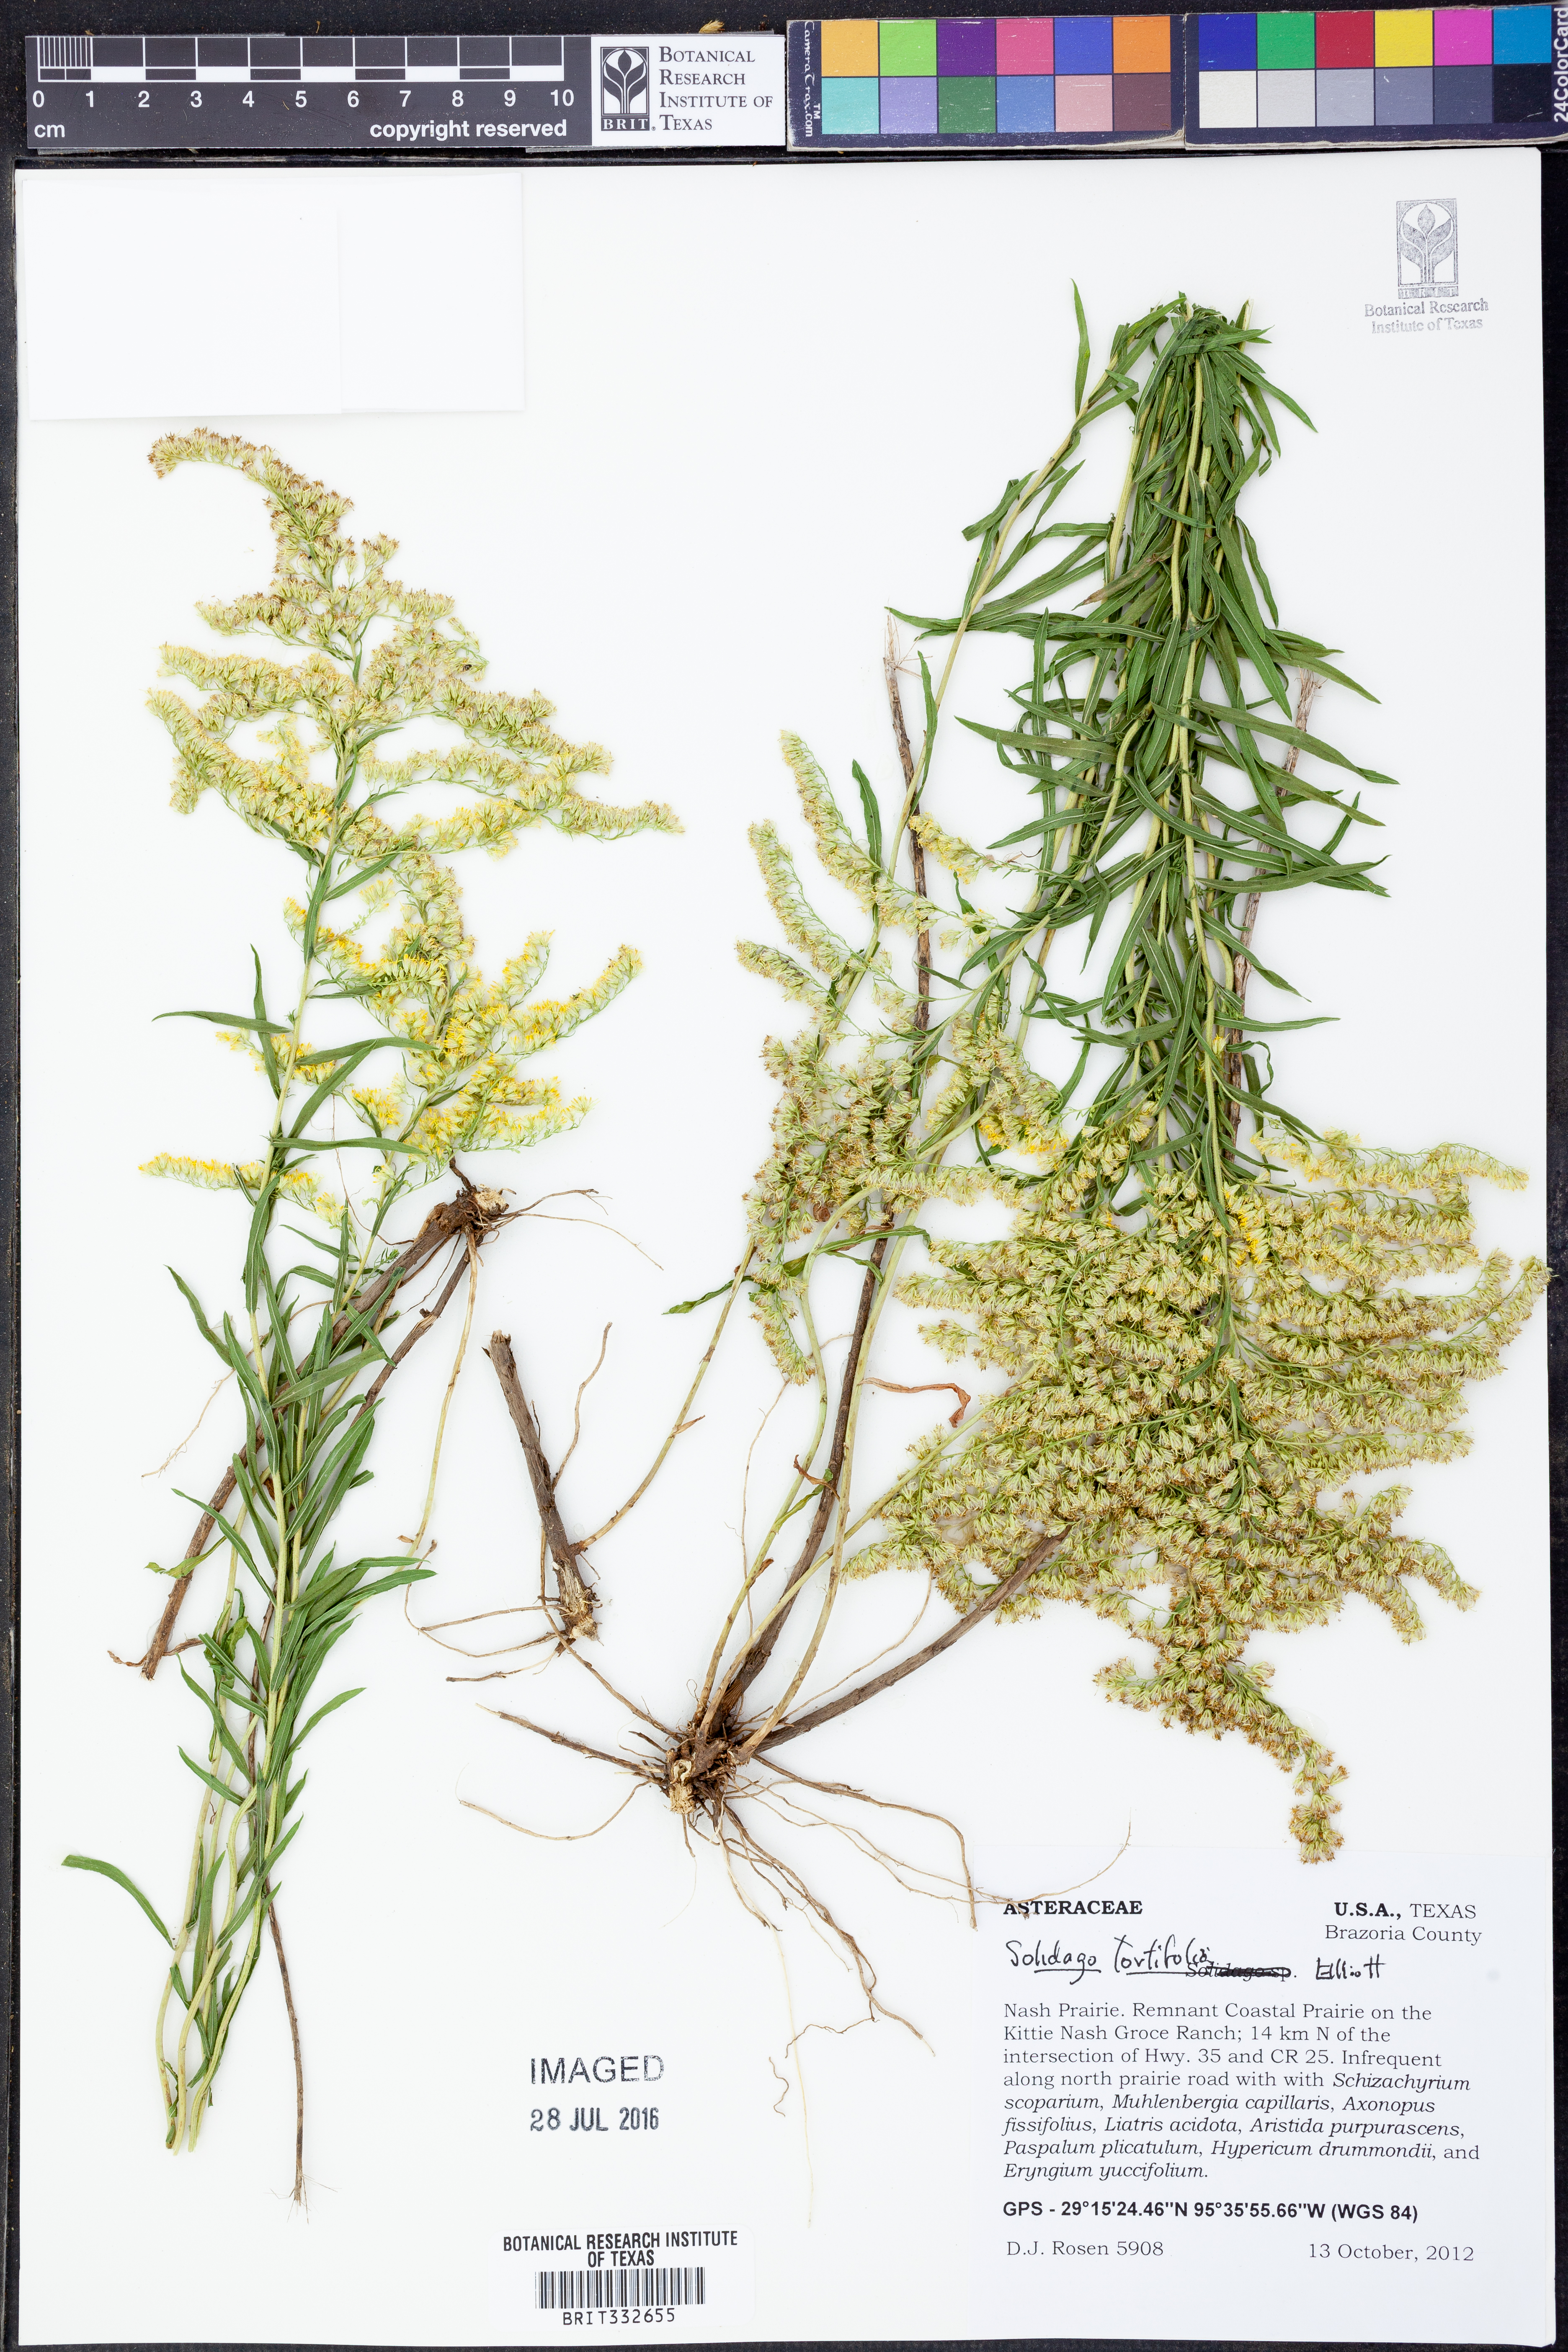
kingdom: Plantae
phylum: Tracheophyta
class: Magnoliopsida
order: Asterales
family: Asteraceae
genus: Solidago
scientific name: Solidago tortifolia
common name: Twisted-leaf goldenrod
